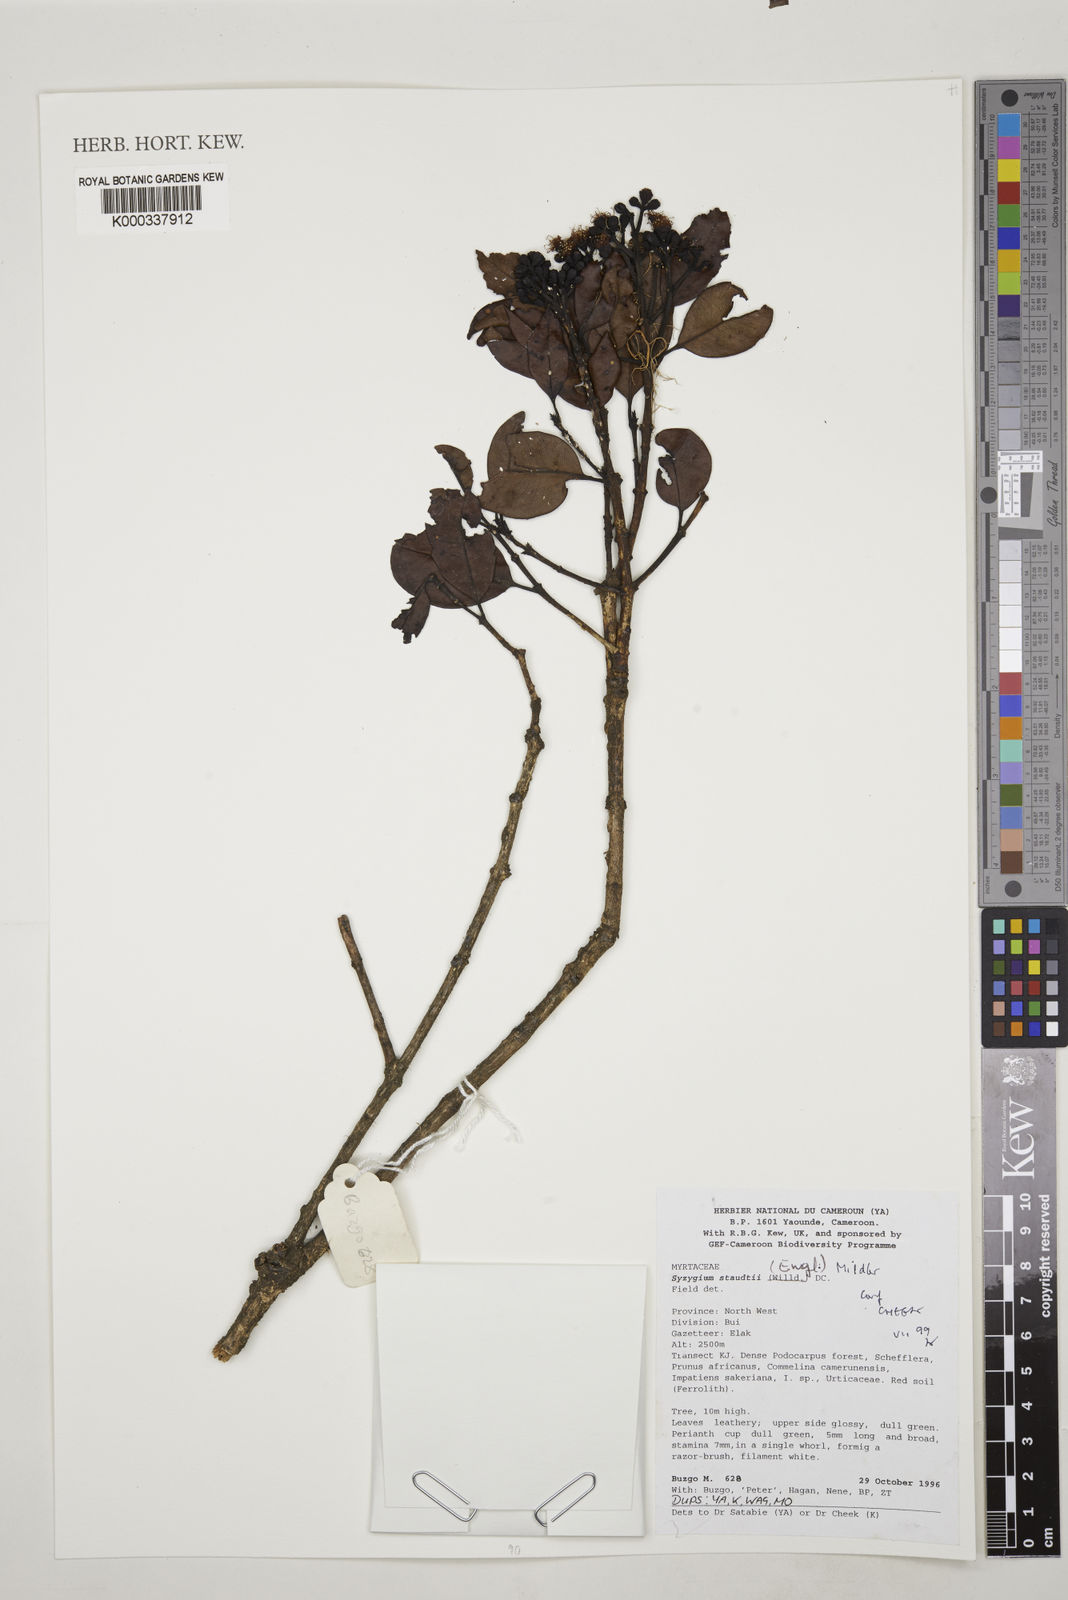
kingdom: Plantae
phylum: Tracheophyta
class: Magnoliopsida
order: Myrtales
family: Myrtaceae
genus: Syzygium
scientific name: Syzygium staudtii
